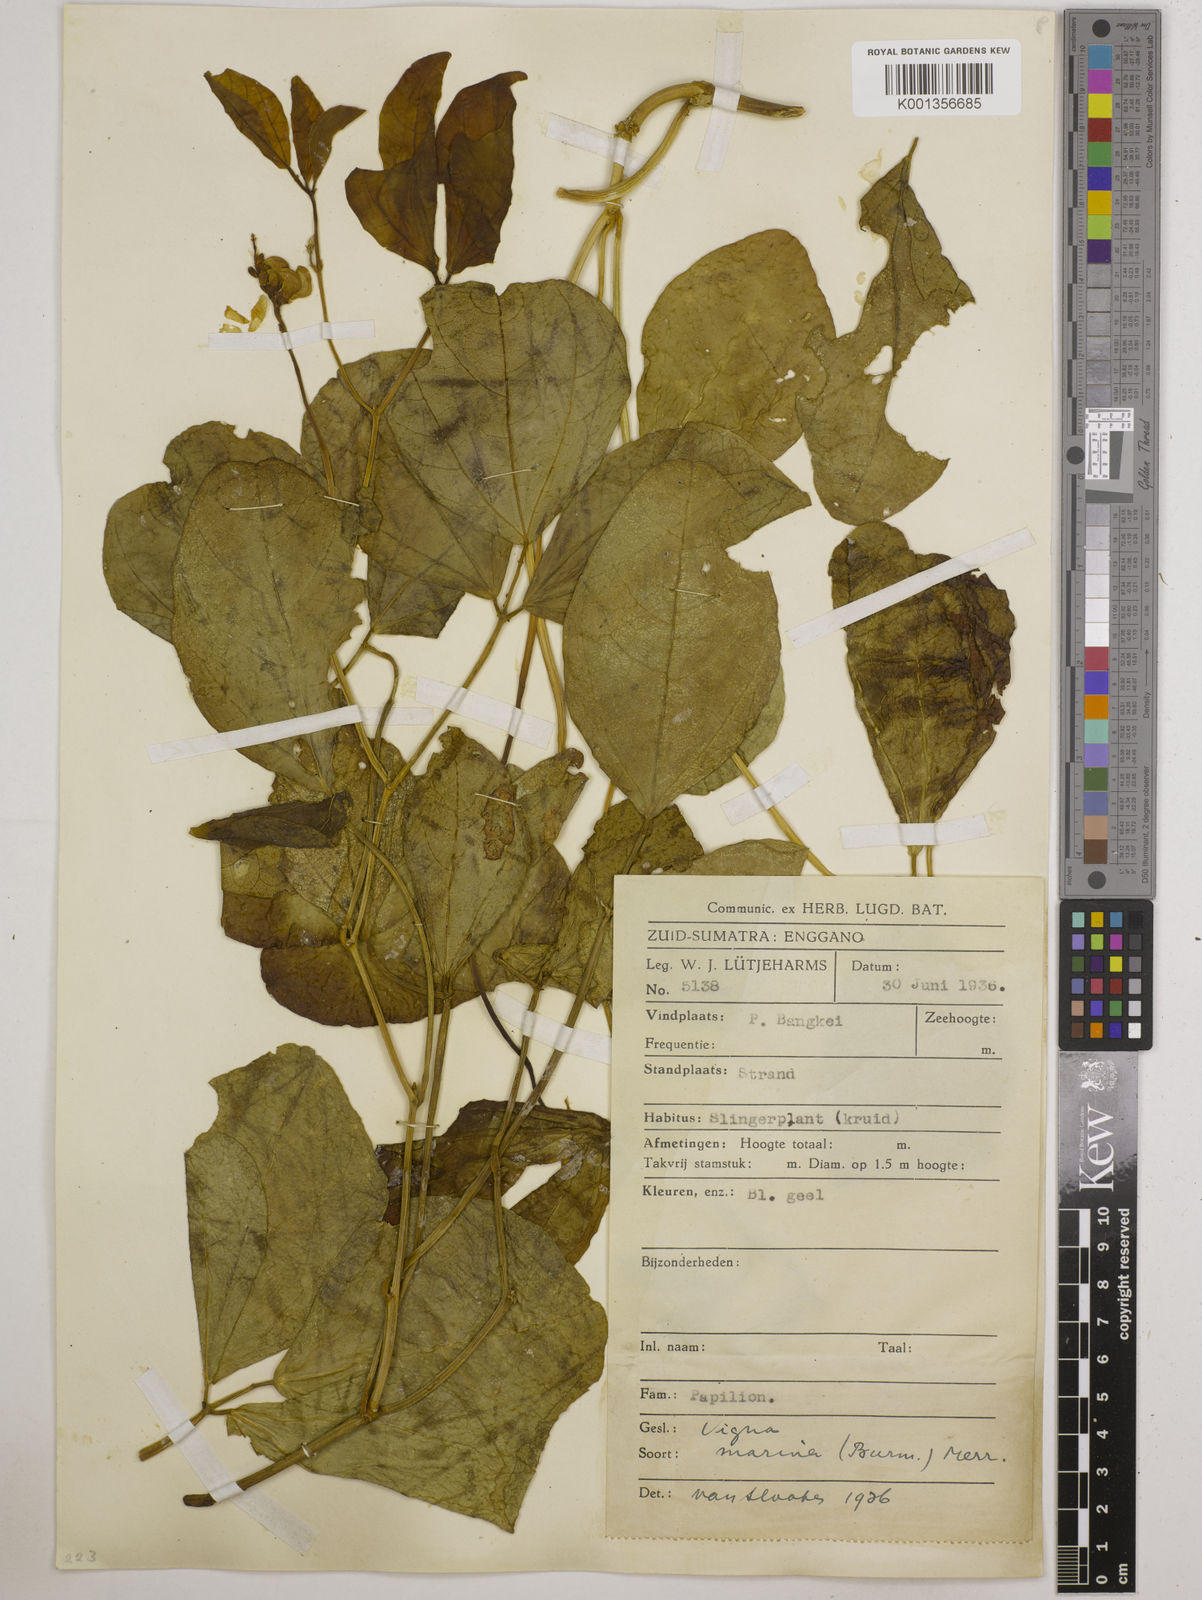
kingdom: Plantae
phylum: Tracheophyta
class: Magnoliopsida
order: Fabales
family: Fabaceae
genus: Vigna
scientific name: Vigna marina
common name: Dune-bean
